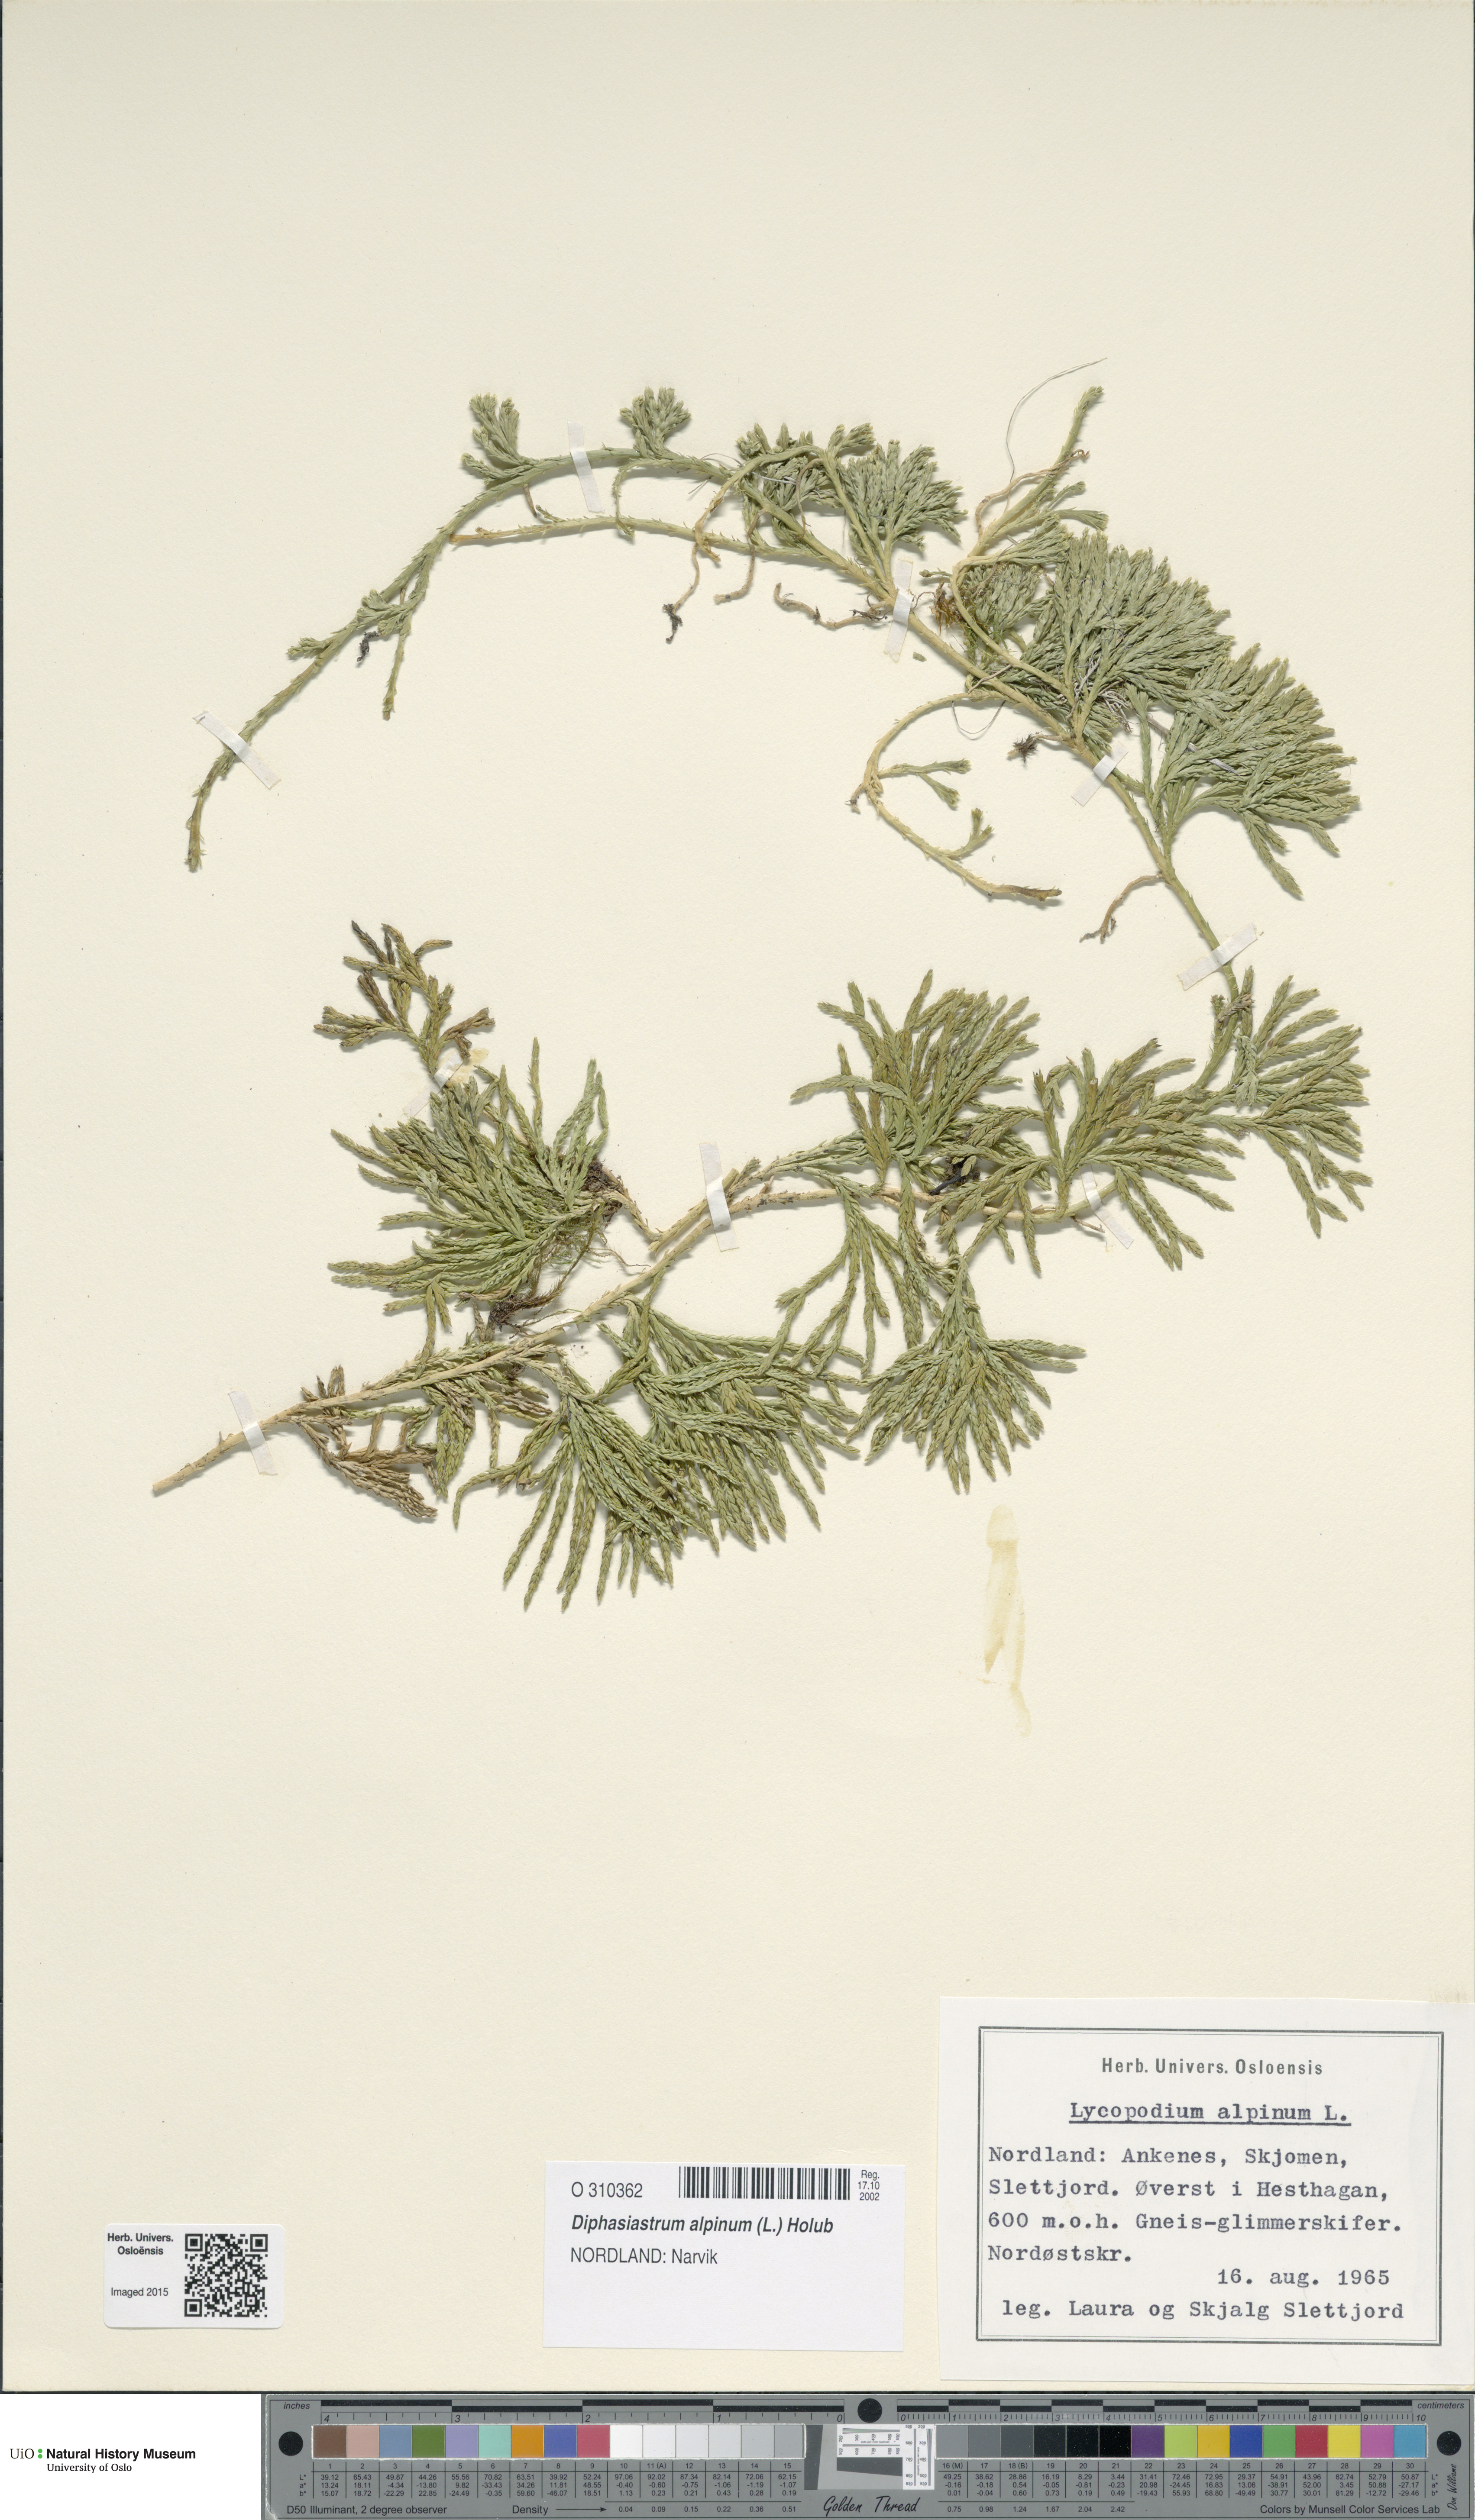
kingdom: Plantae
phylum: Tracheophyta
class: Lycopodiopsida
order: Lycopodiales
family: Lycopodiaceae
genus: Diphasiastrum
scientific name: Diphasiastrum alpinum
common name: Alpine clubmoss
